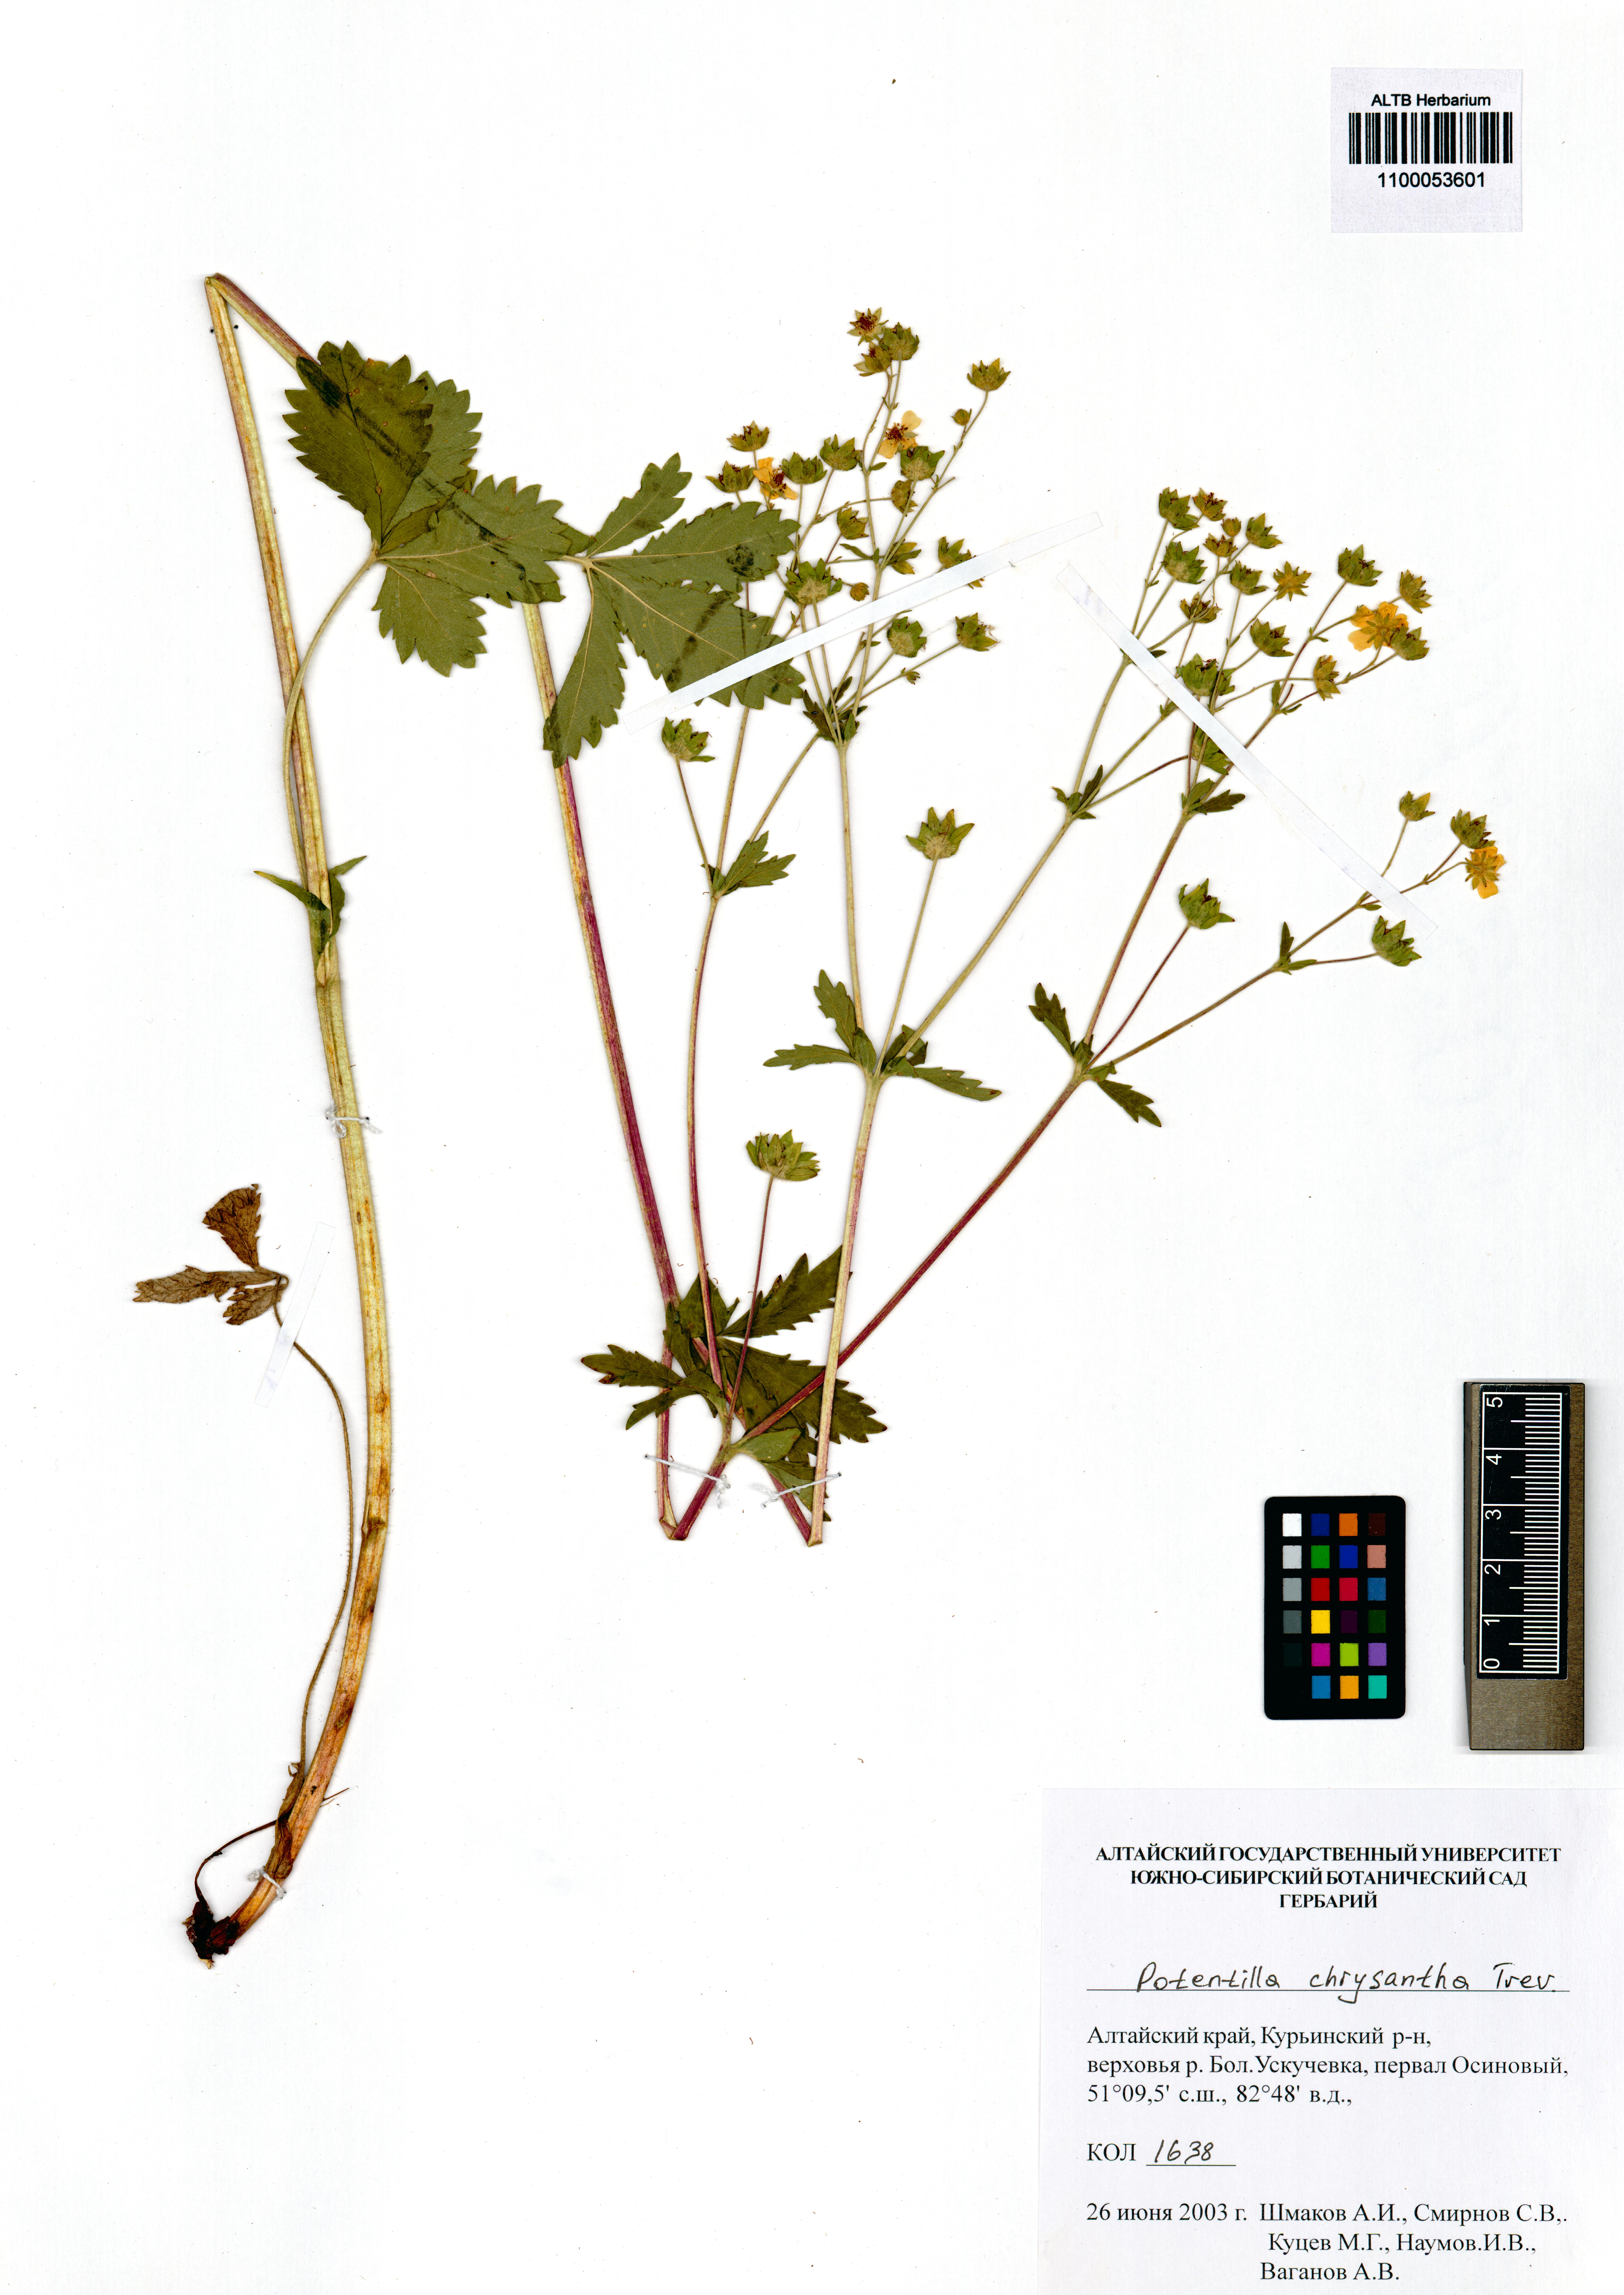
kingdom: Plantae
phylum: Tracheophyta
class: Magnoliopsida
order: Rosales
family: Rosaceae
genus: Potentilla
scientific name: Potentilla chrysantha
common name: Thuringian cinquefoil
